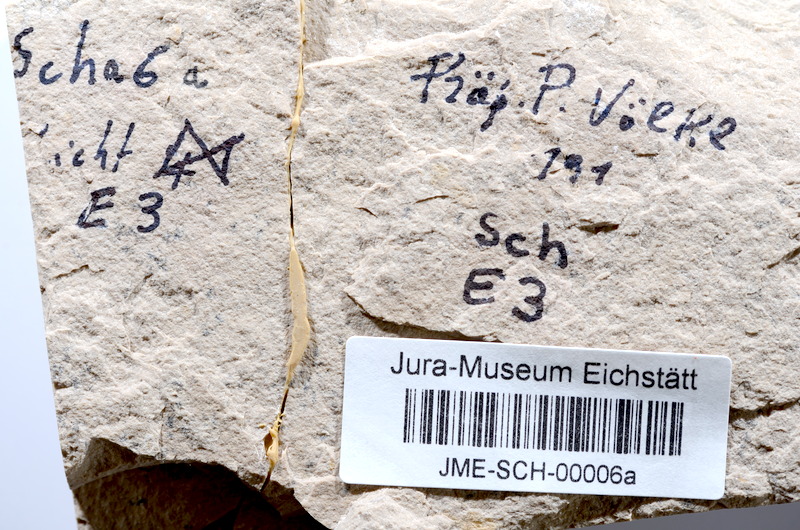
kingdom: Animalia
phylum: Chordata
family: Ascalaboidae
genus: Tharsis
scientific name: Tharsis dubius
